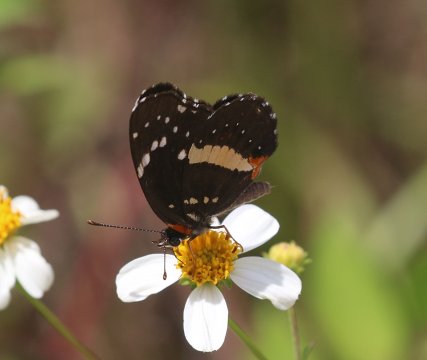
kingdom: Animalia
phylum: Arthropoda
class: Insecta
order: Lepidoptera
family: Nymphalidae
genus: Chlosyne
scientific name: Chlosyne lacinia
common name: Bordered Patch
